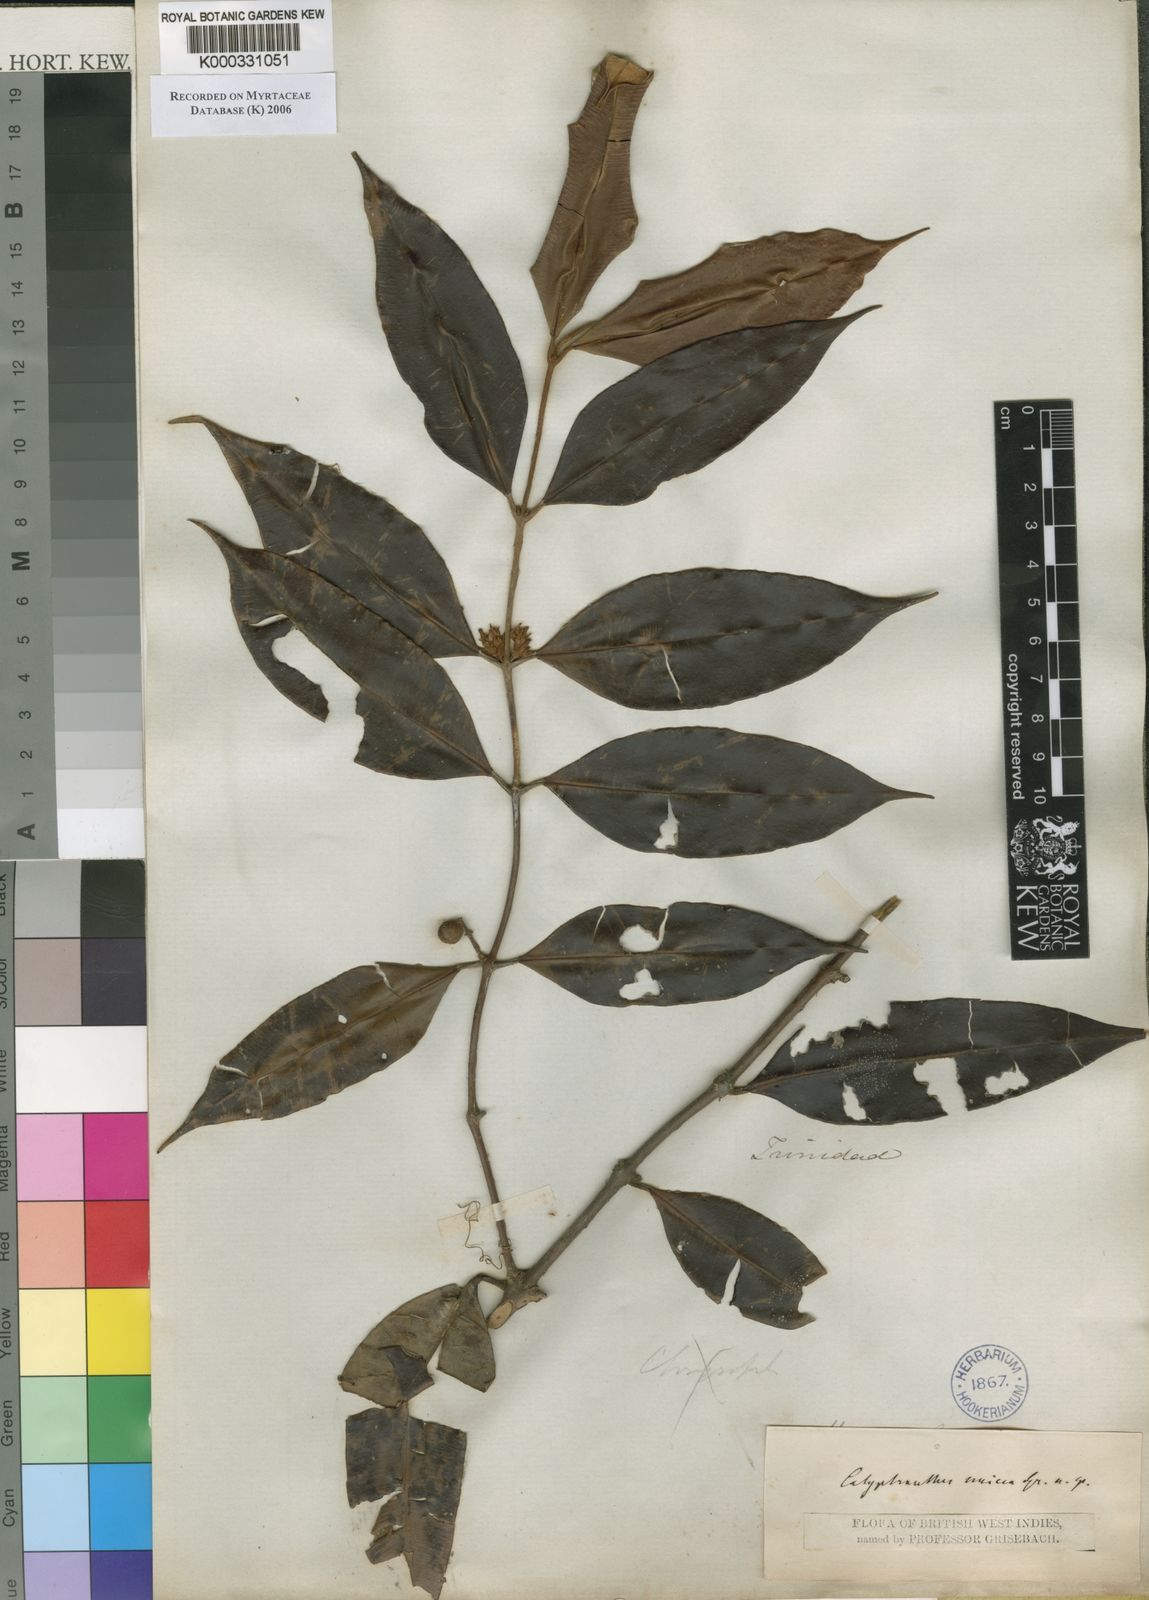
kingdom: Plantae
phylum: Tracheophyta
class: Magnoliopsida
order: Myrtales
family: Myrtaceae
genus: Myrcia
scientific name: Myrcia fasciculata
